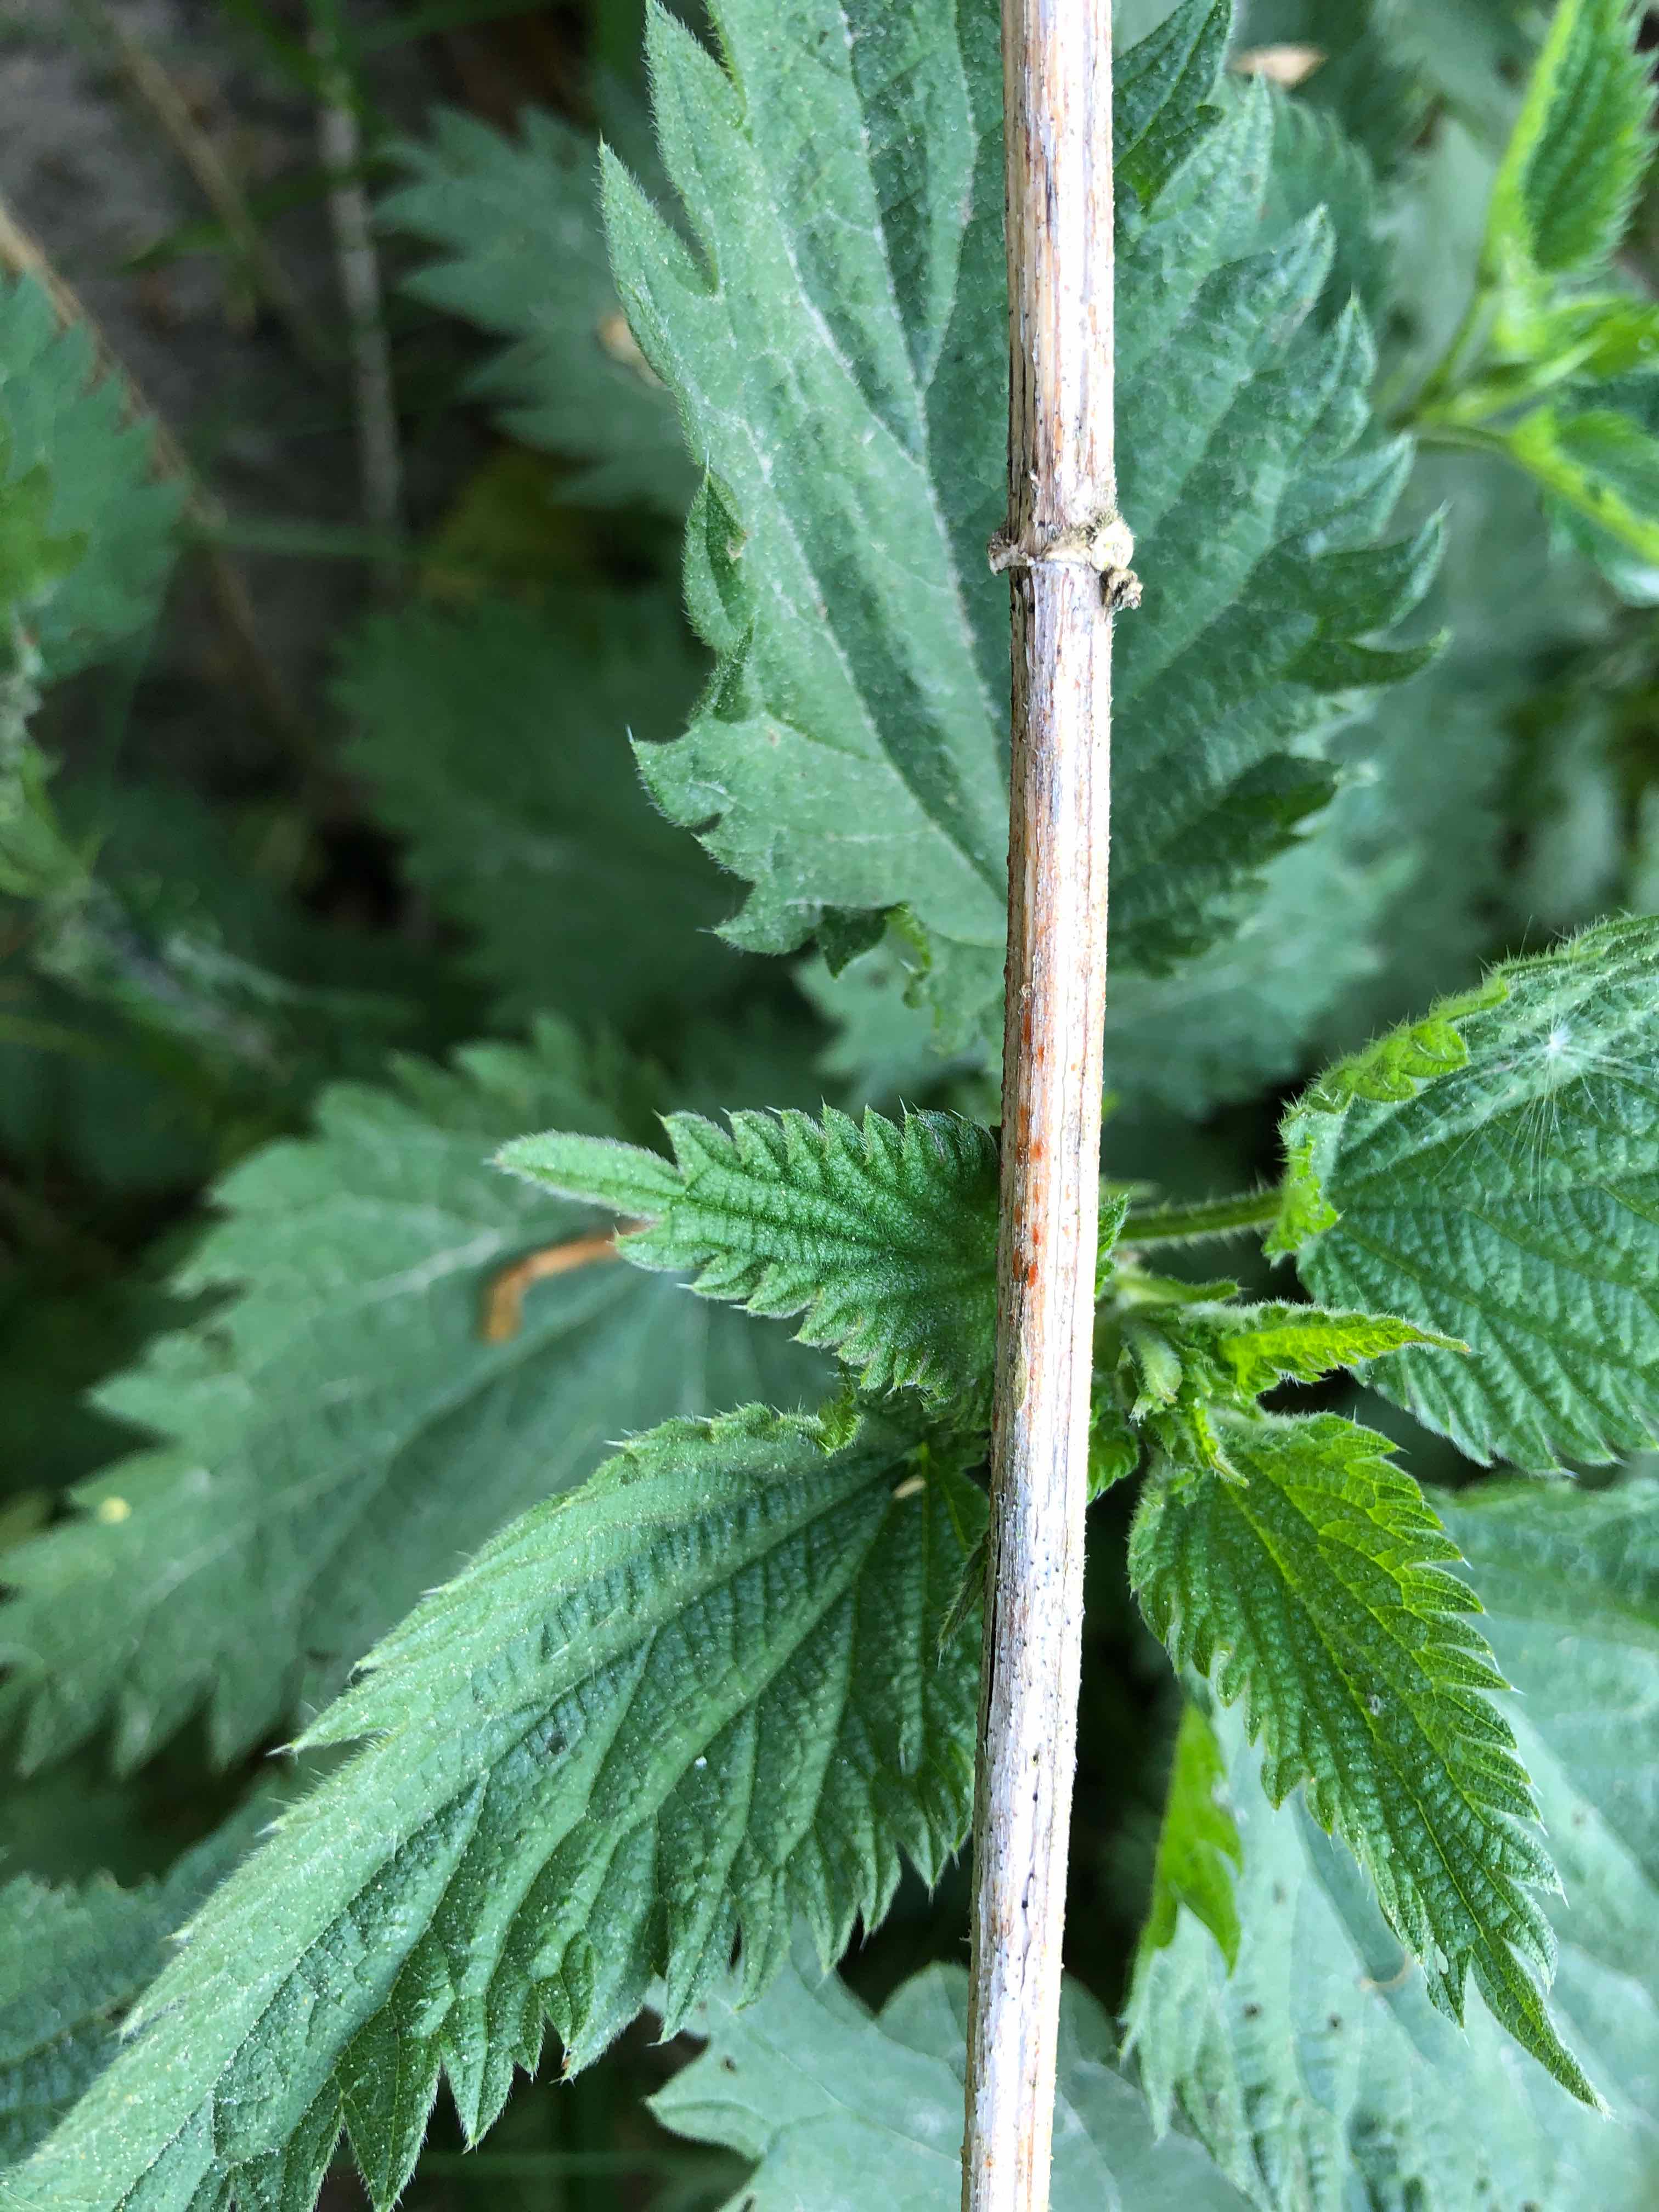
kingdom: Fungi
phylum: Ascomycota
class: Leotiomycetes
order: Helotiales
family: Calloriaceae
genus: Calloria
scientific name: Calloria urticae
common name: nælde-orangeskive
